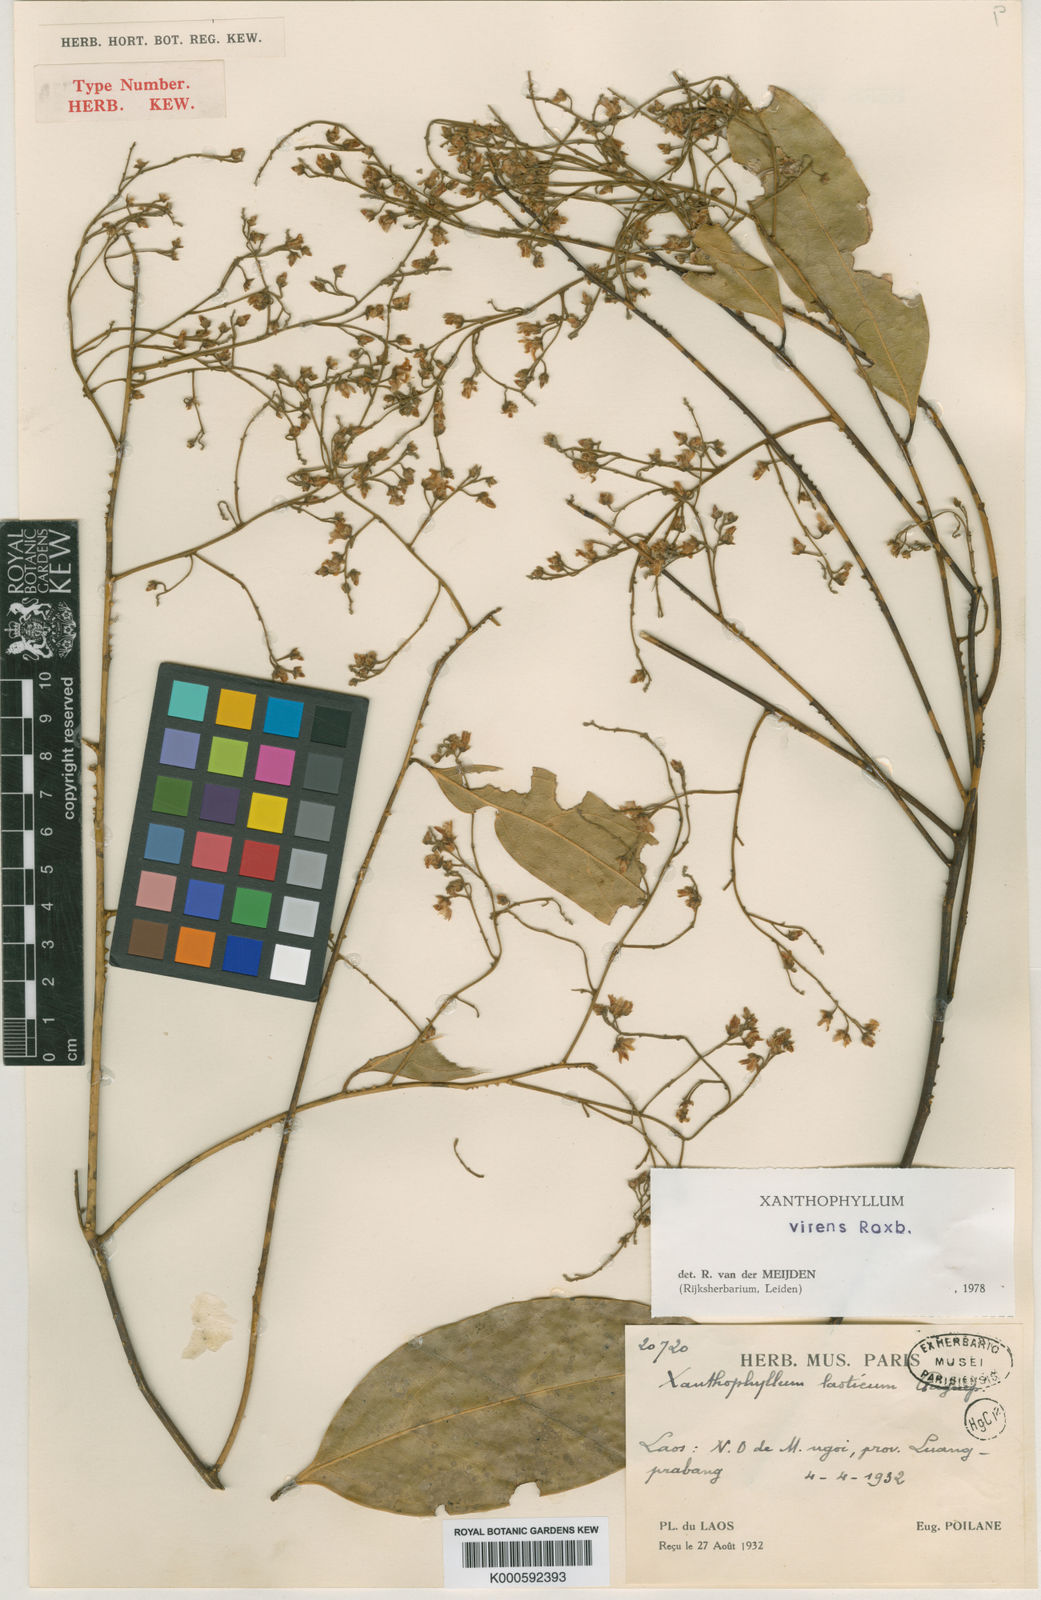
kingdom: Plantae
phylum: Tracheophyta
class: Magnoliopsida
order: Fabales
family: Polygalaceae
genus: Xanthophyllum
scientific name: Xanthophyllum virens
